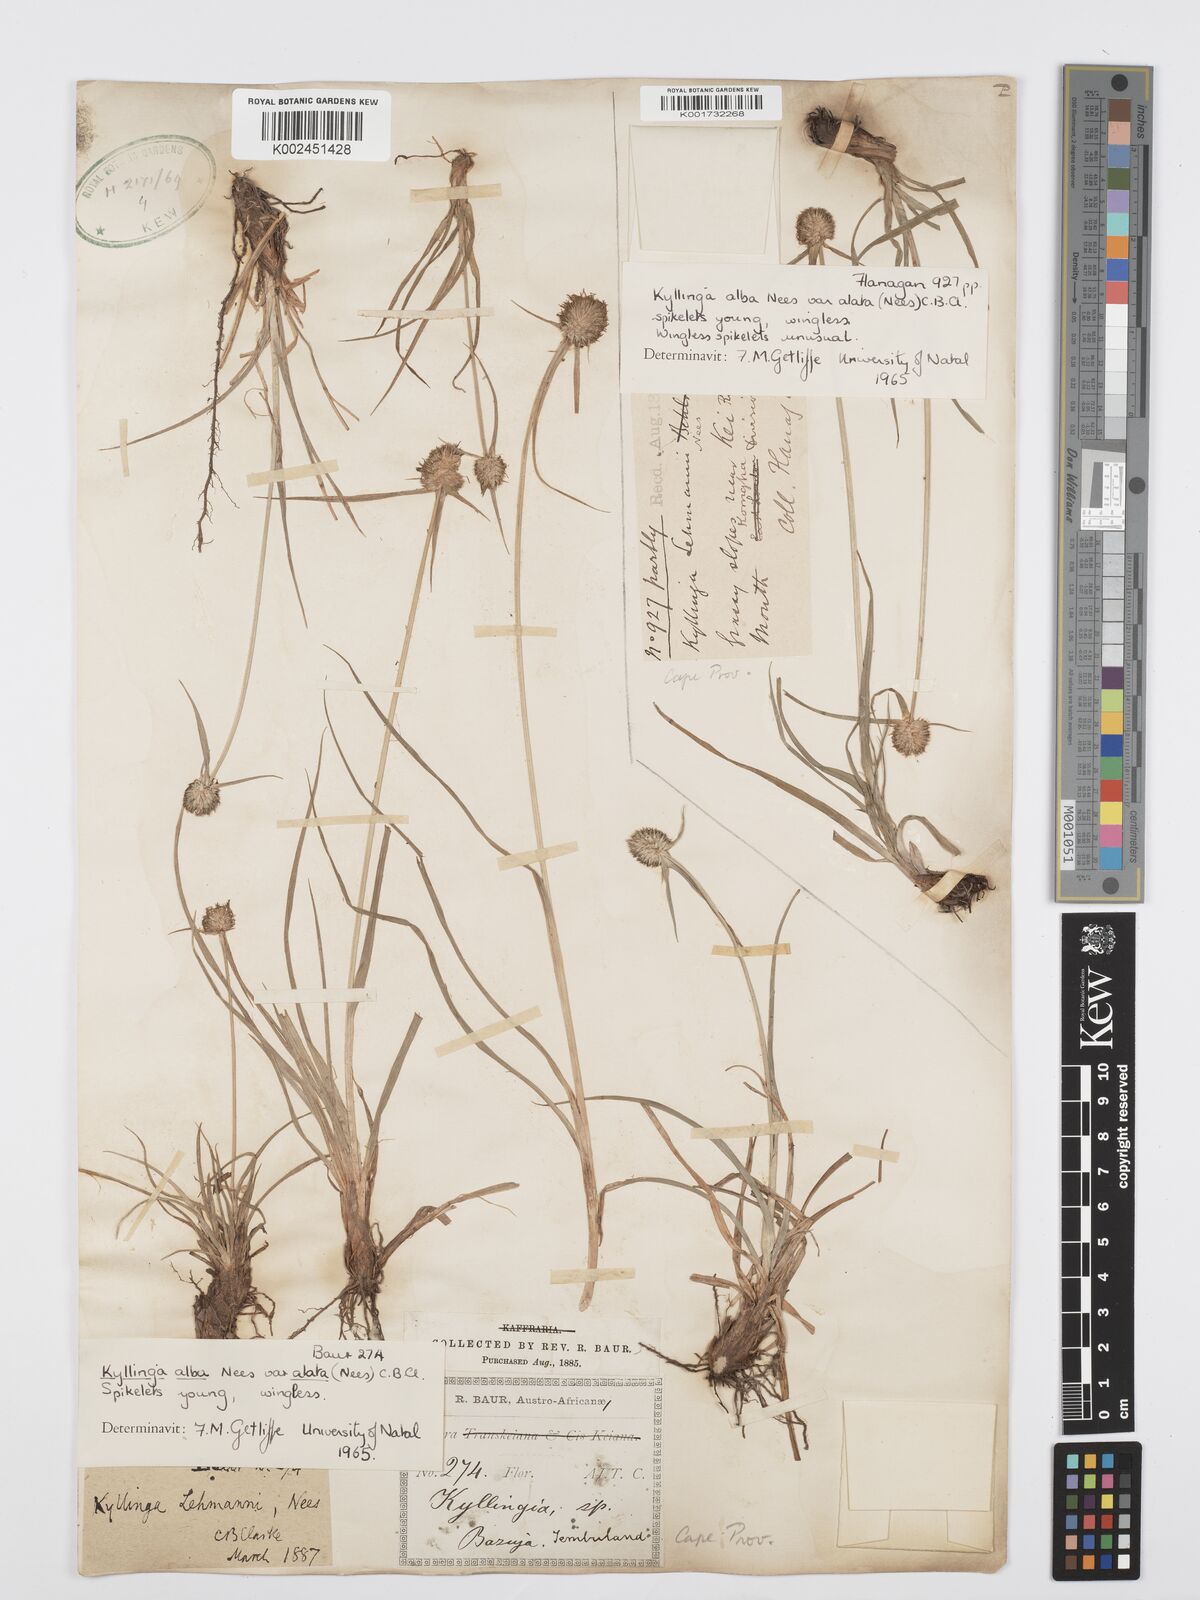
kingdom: Plantae
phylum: Tracheophyta
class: Liliopsida
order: Poales
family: Cyperaceae
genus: Cyperus
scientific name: Cyperus alatus
